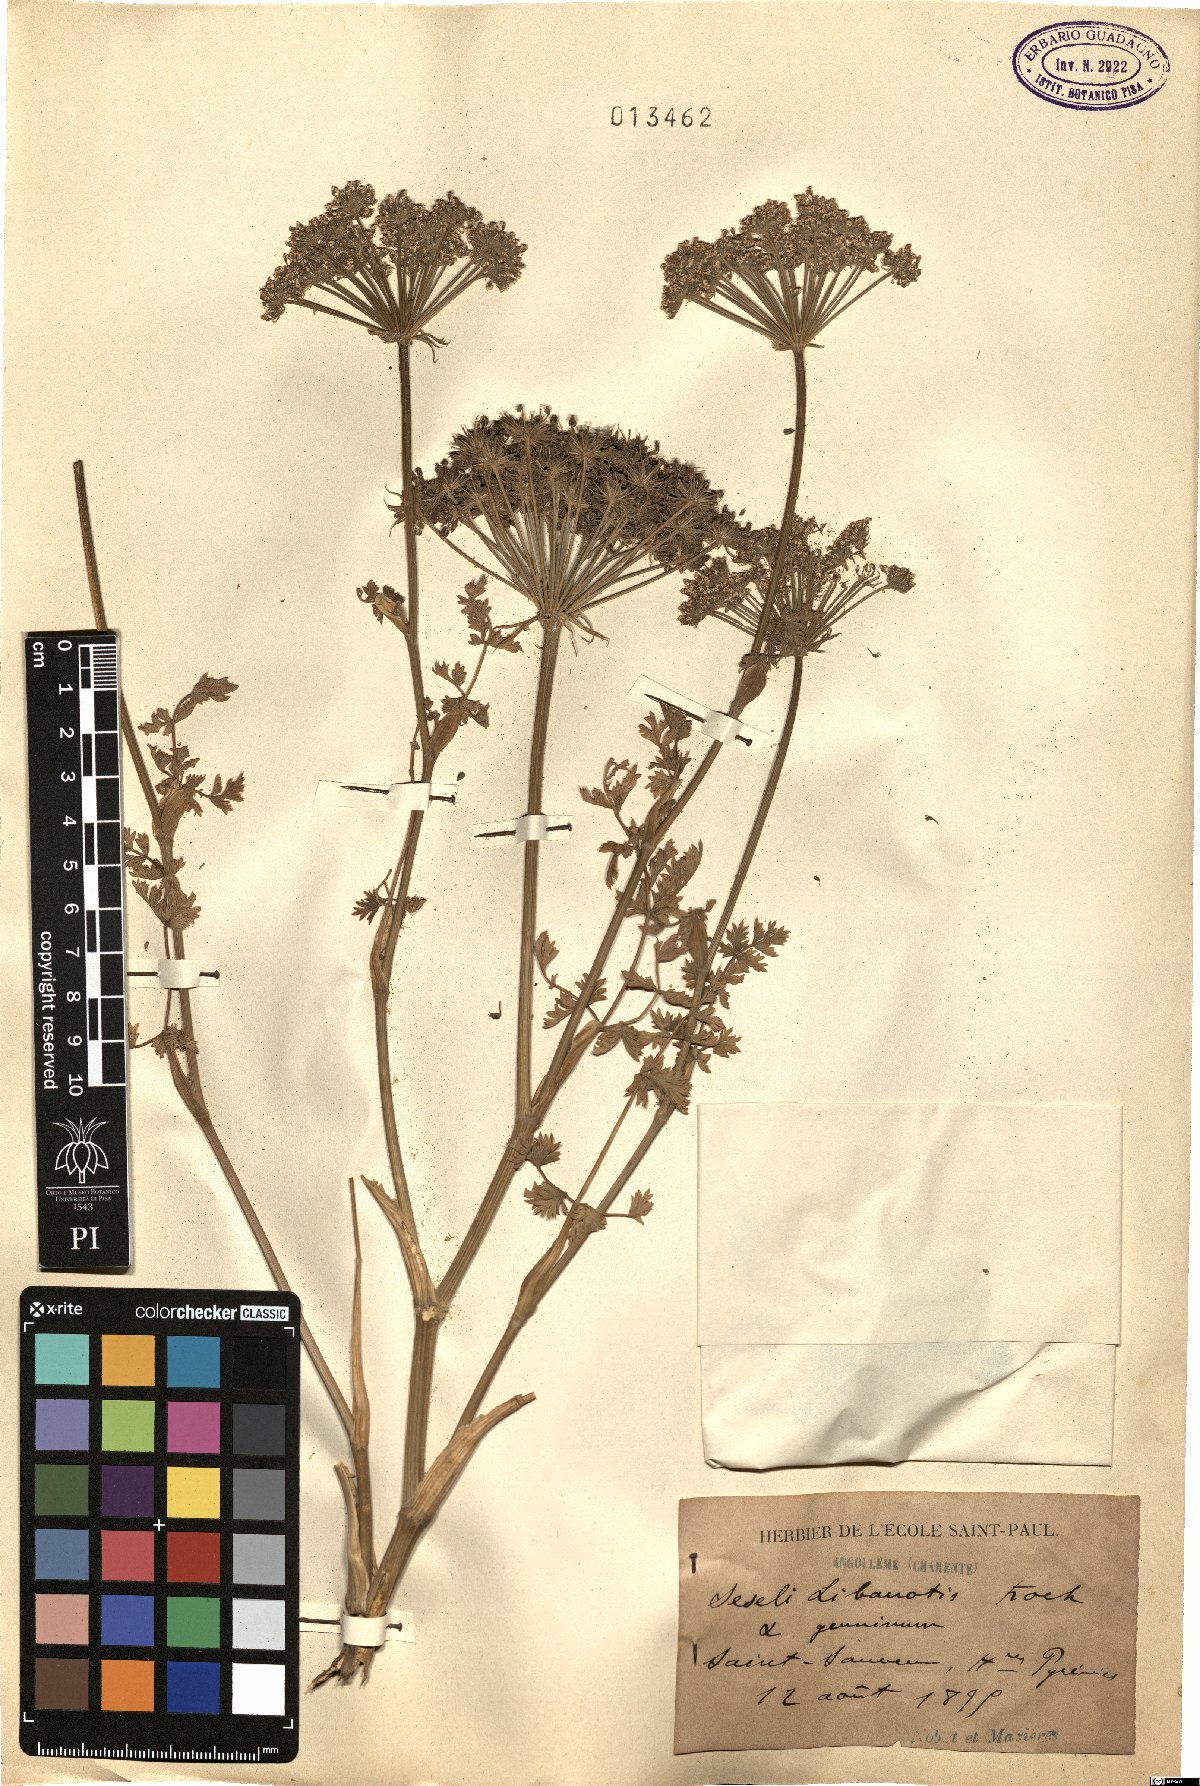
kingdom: Plantae
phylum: Tracheophyta
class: Magnoliopsida
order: Apiales
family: Apiaceae
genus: Seseli
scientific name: Seseli libanotis
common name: Mooncarrot
